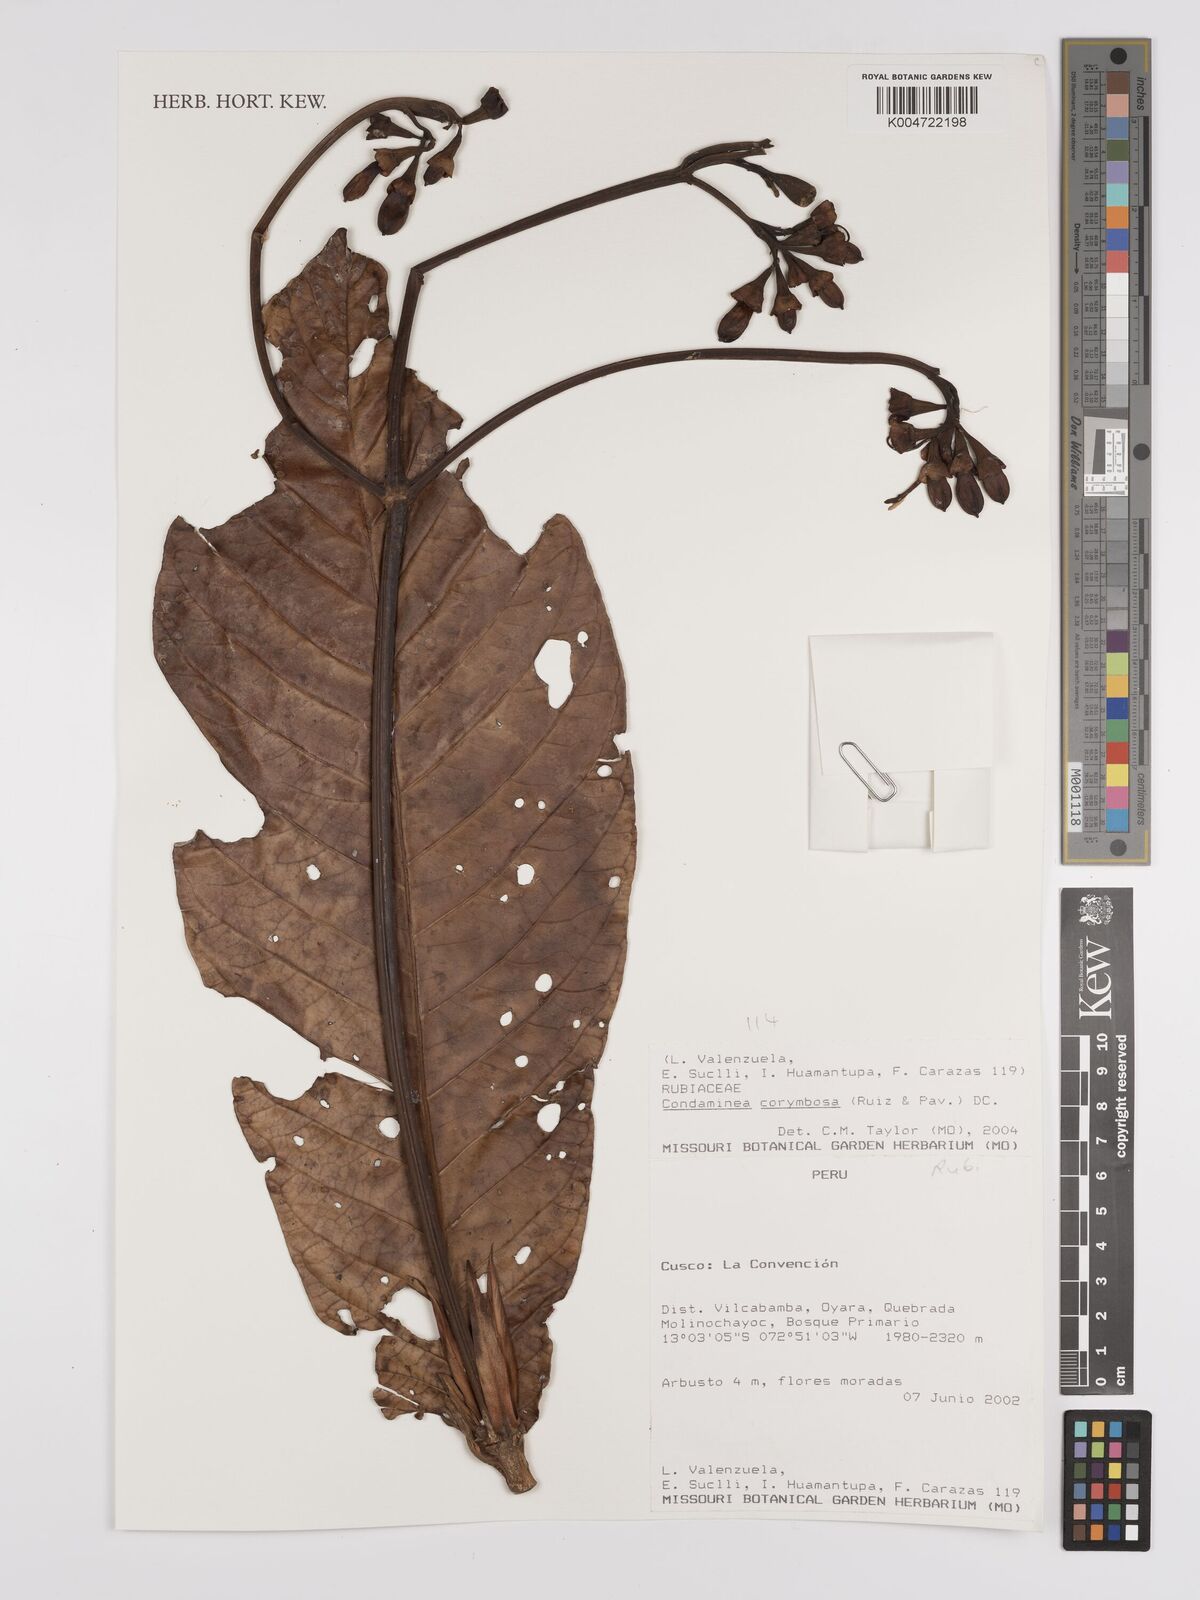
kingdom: Plantae
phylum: Tracheophyta
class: Magnoliopsida
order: Gentianales
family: Rubiaceae
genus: Condaminea
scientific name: Condaminea corymbosa
